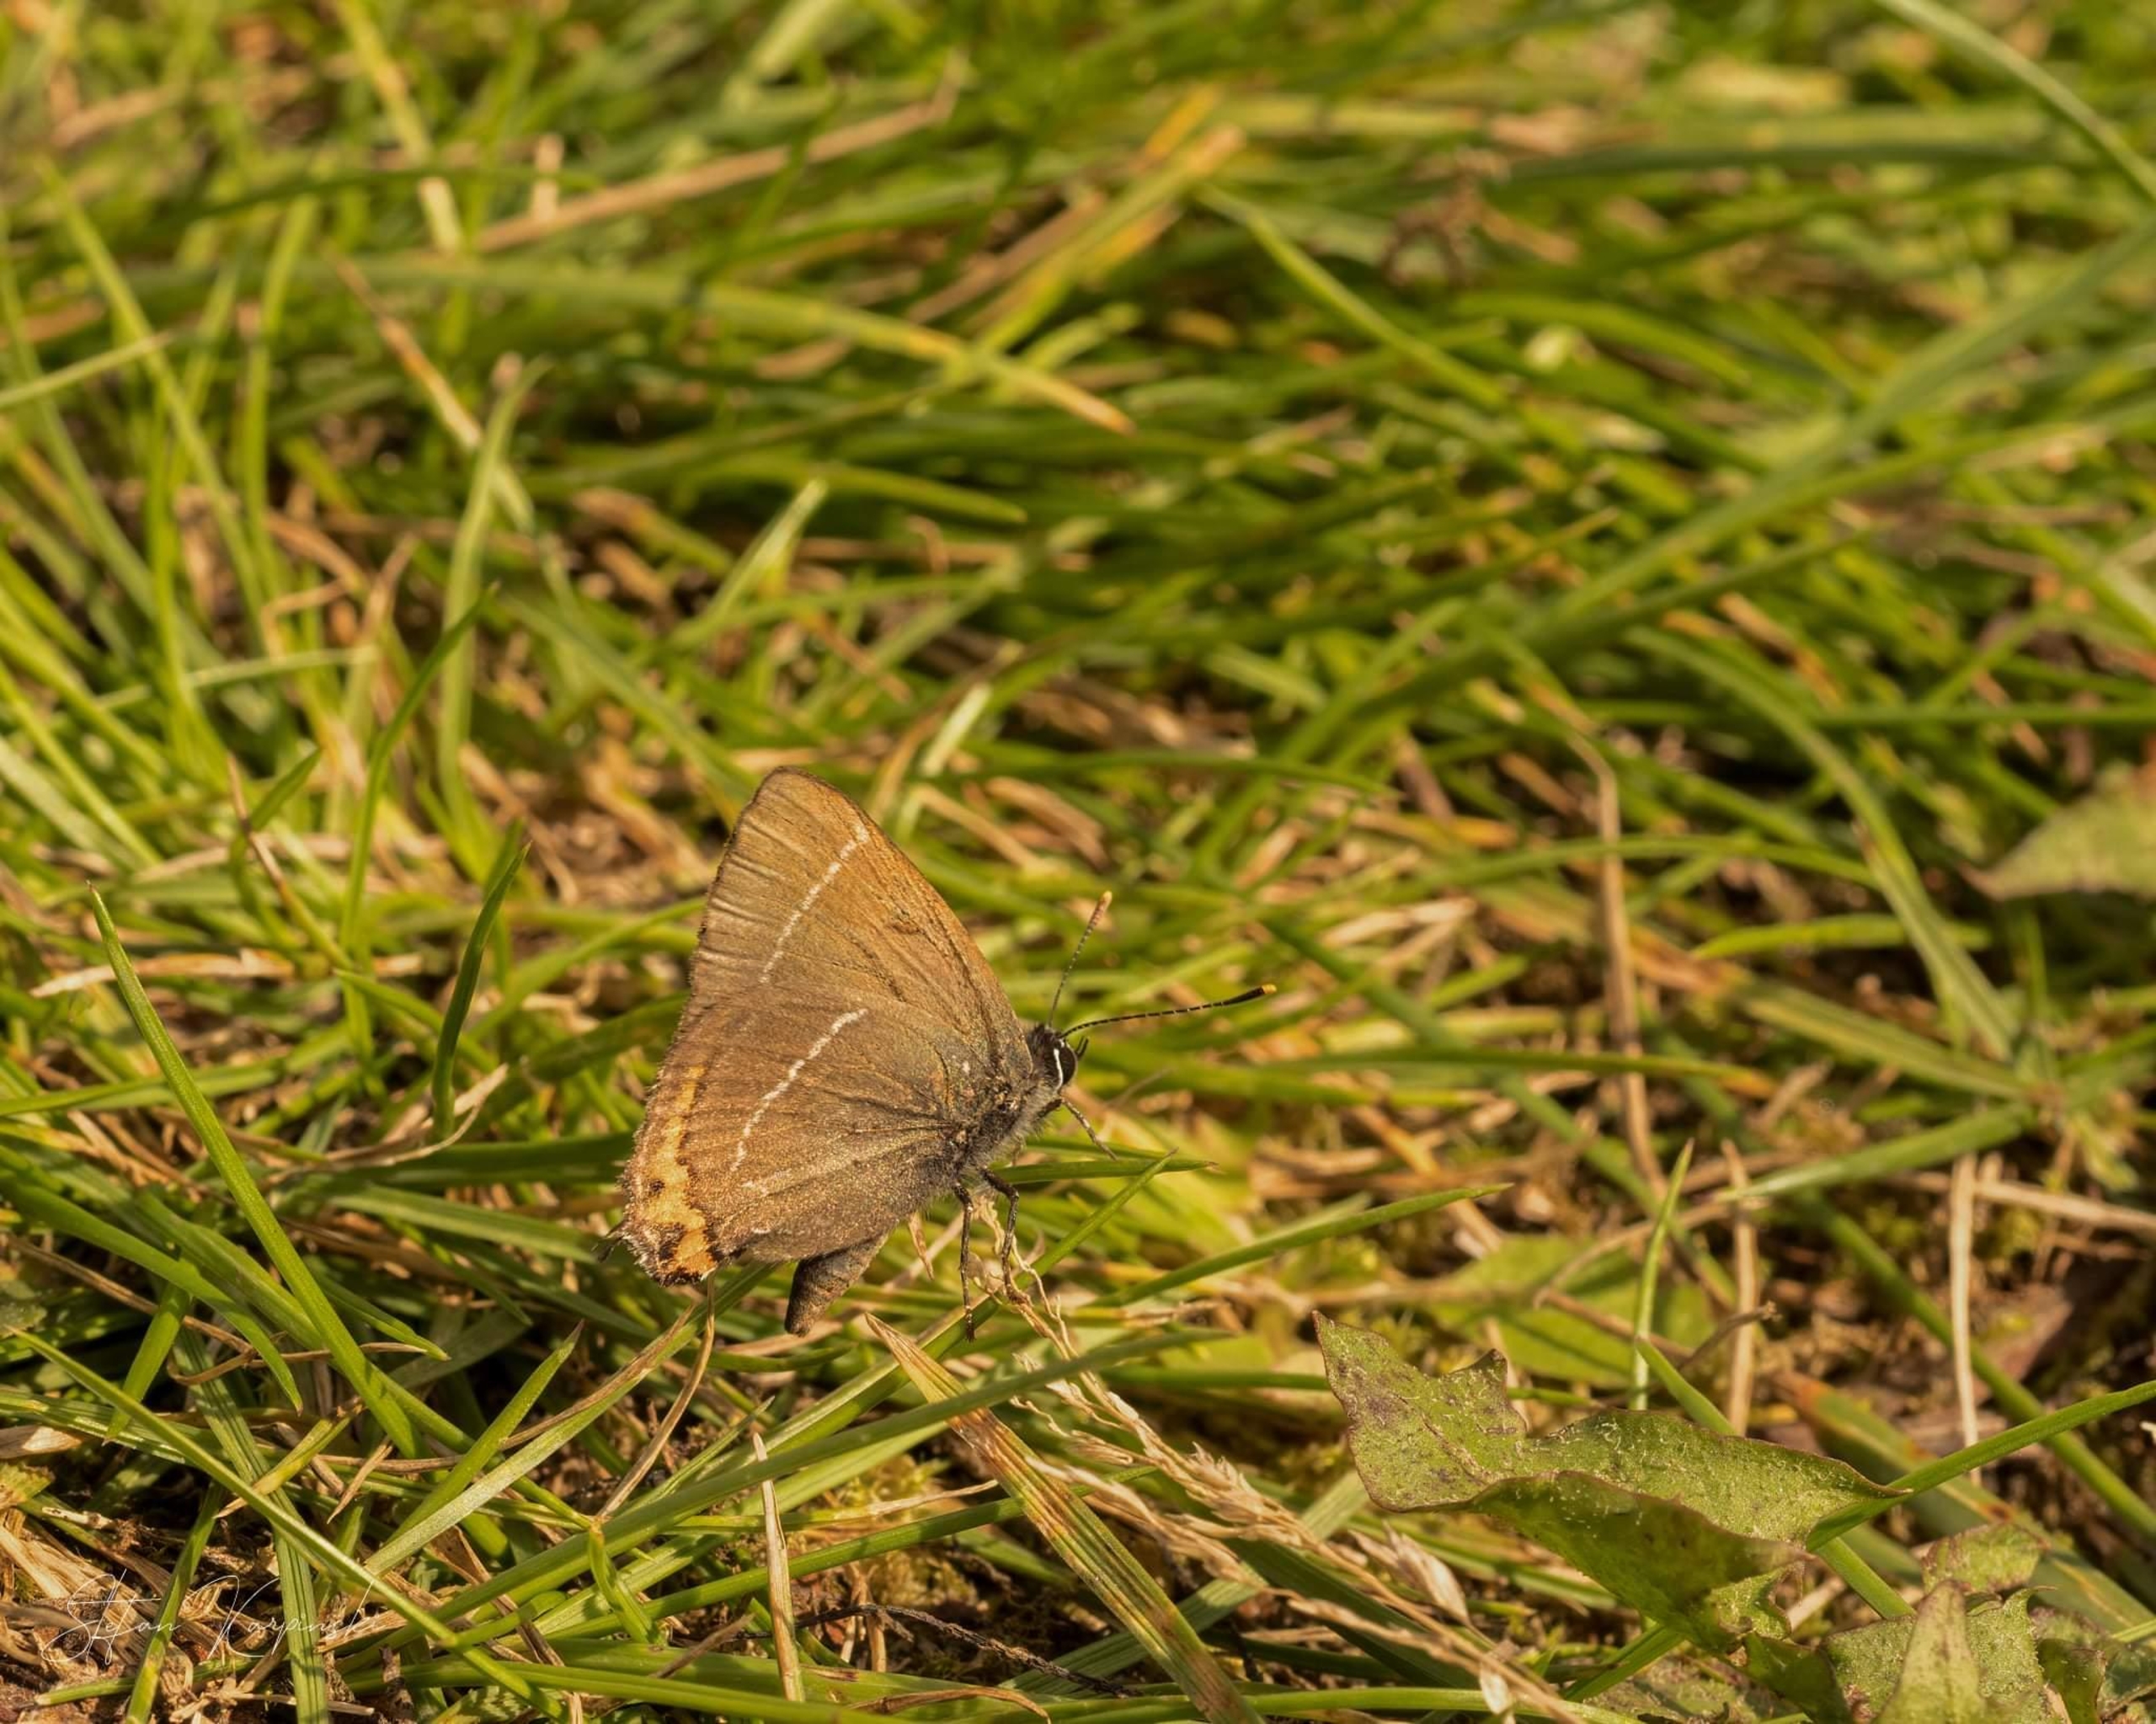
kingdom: Animalia
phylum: Arthropoda
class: Insecta
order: Lepidoptera
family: Lycaenidae
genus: Satyrium
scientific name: Satyrium w-album
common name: Det hvide W
